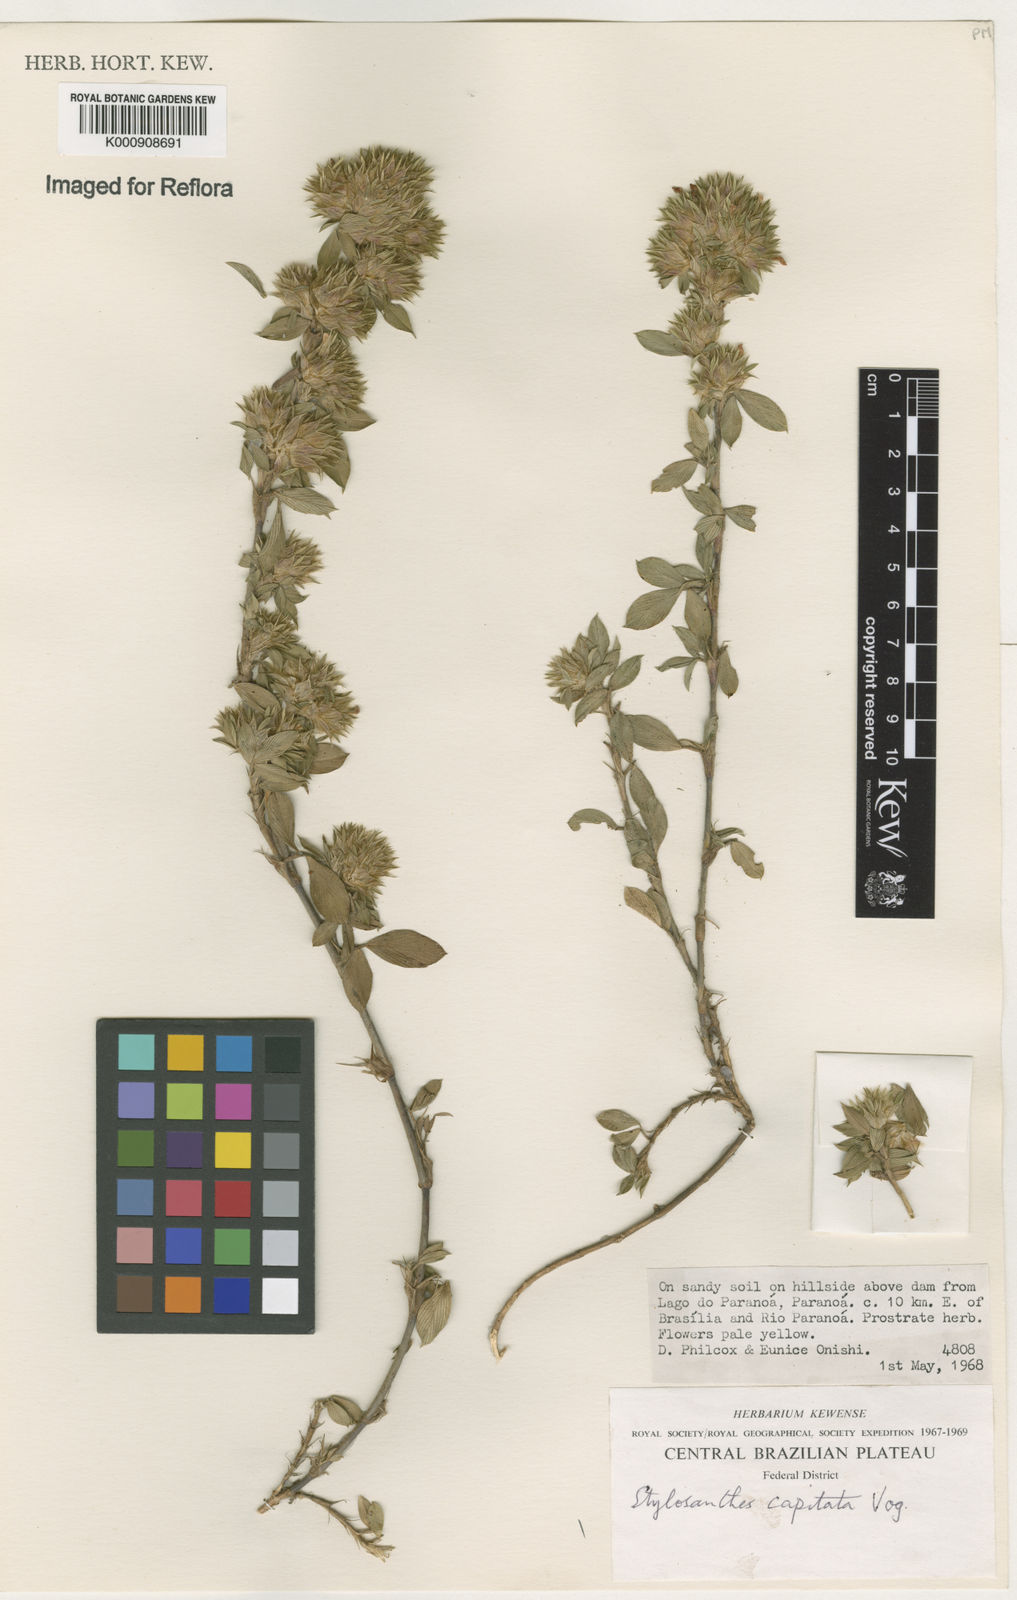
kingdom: Plantae
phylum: Tracheophyta
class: Magnoliopsida
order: Fabales
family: Fabaceae
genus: Stylosanthes
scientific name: Stylosanthes capitata
